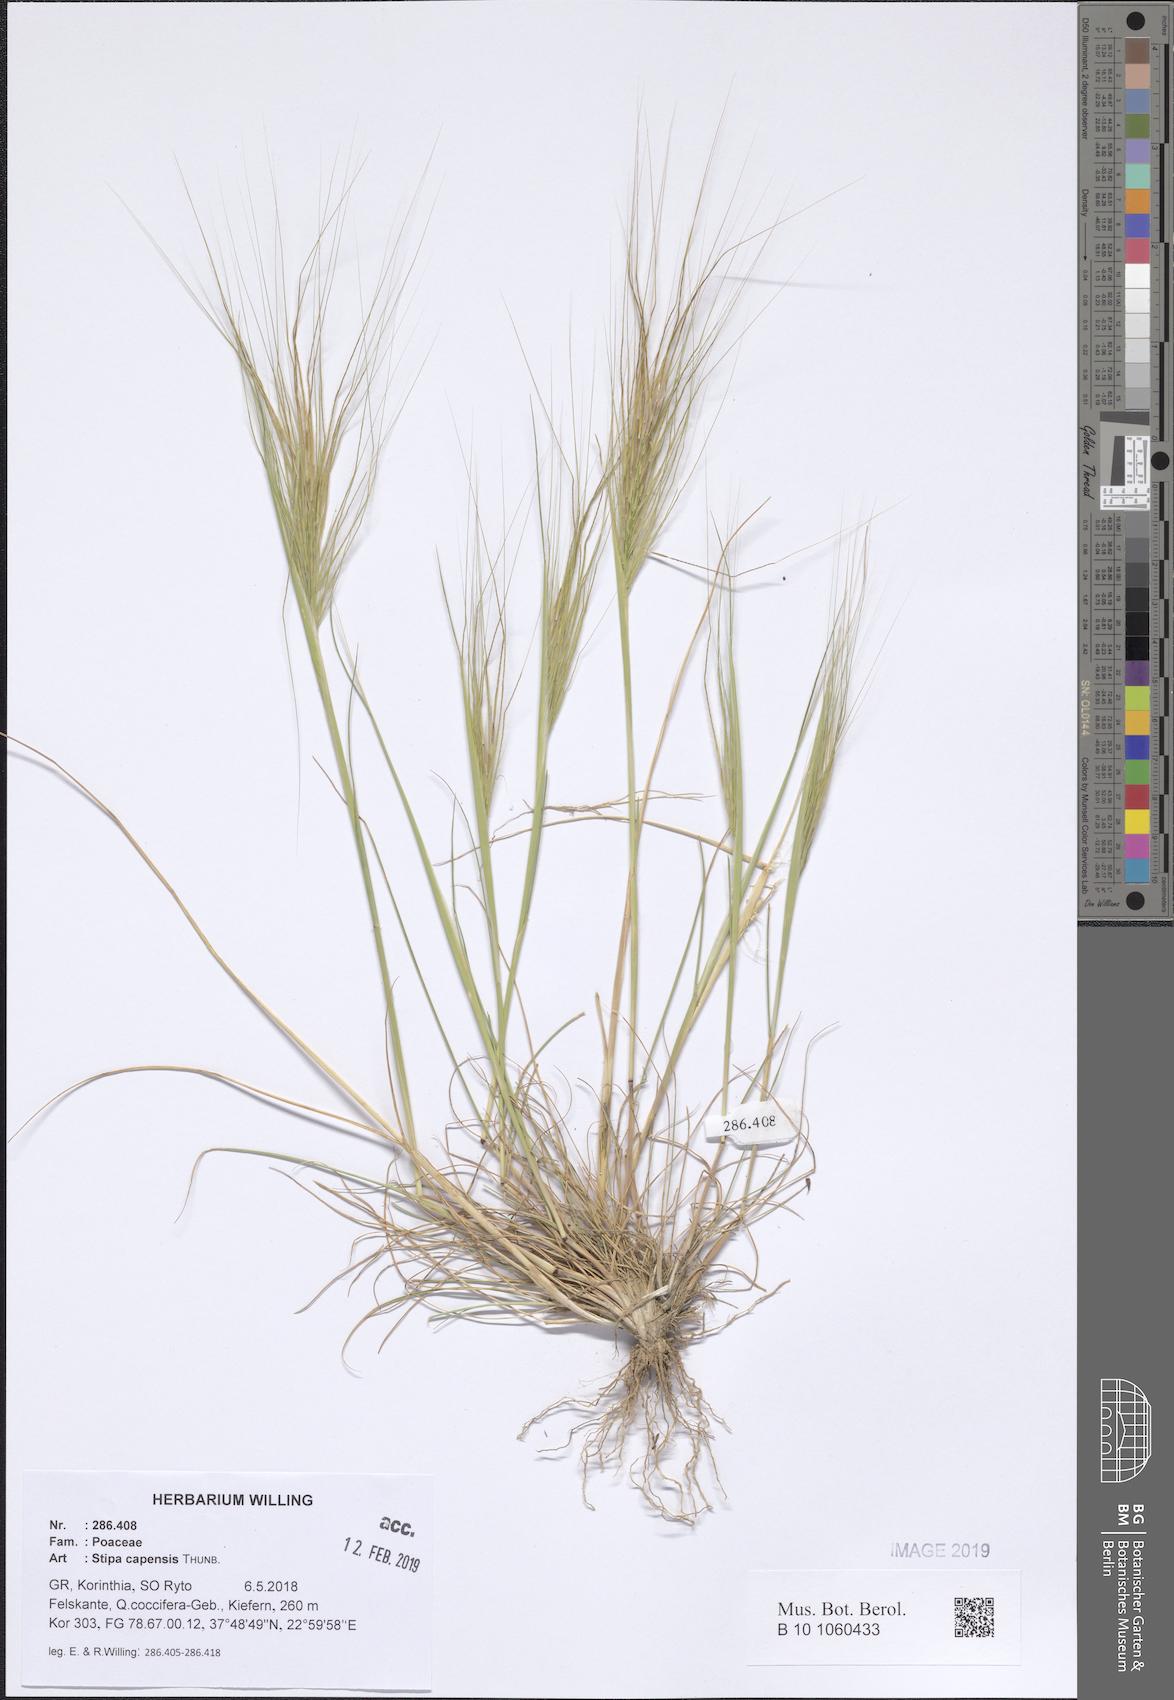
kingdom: Plantae
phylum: Tracheophyta
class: Liliopsida
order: Poales
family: Poaceae
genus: Stipellula
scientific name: Stipellula capensis
